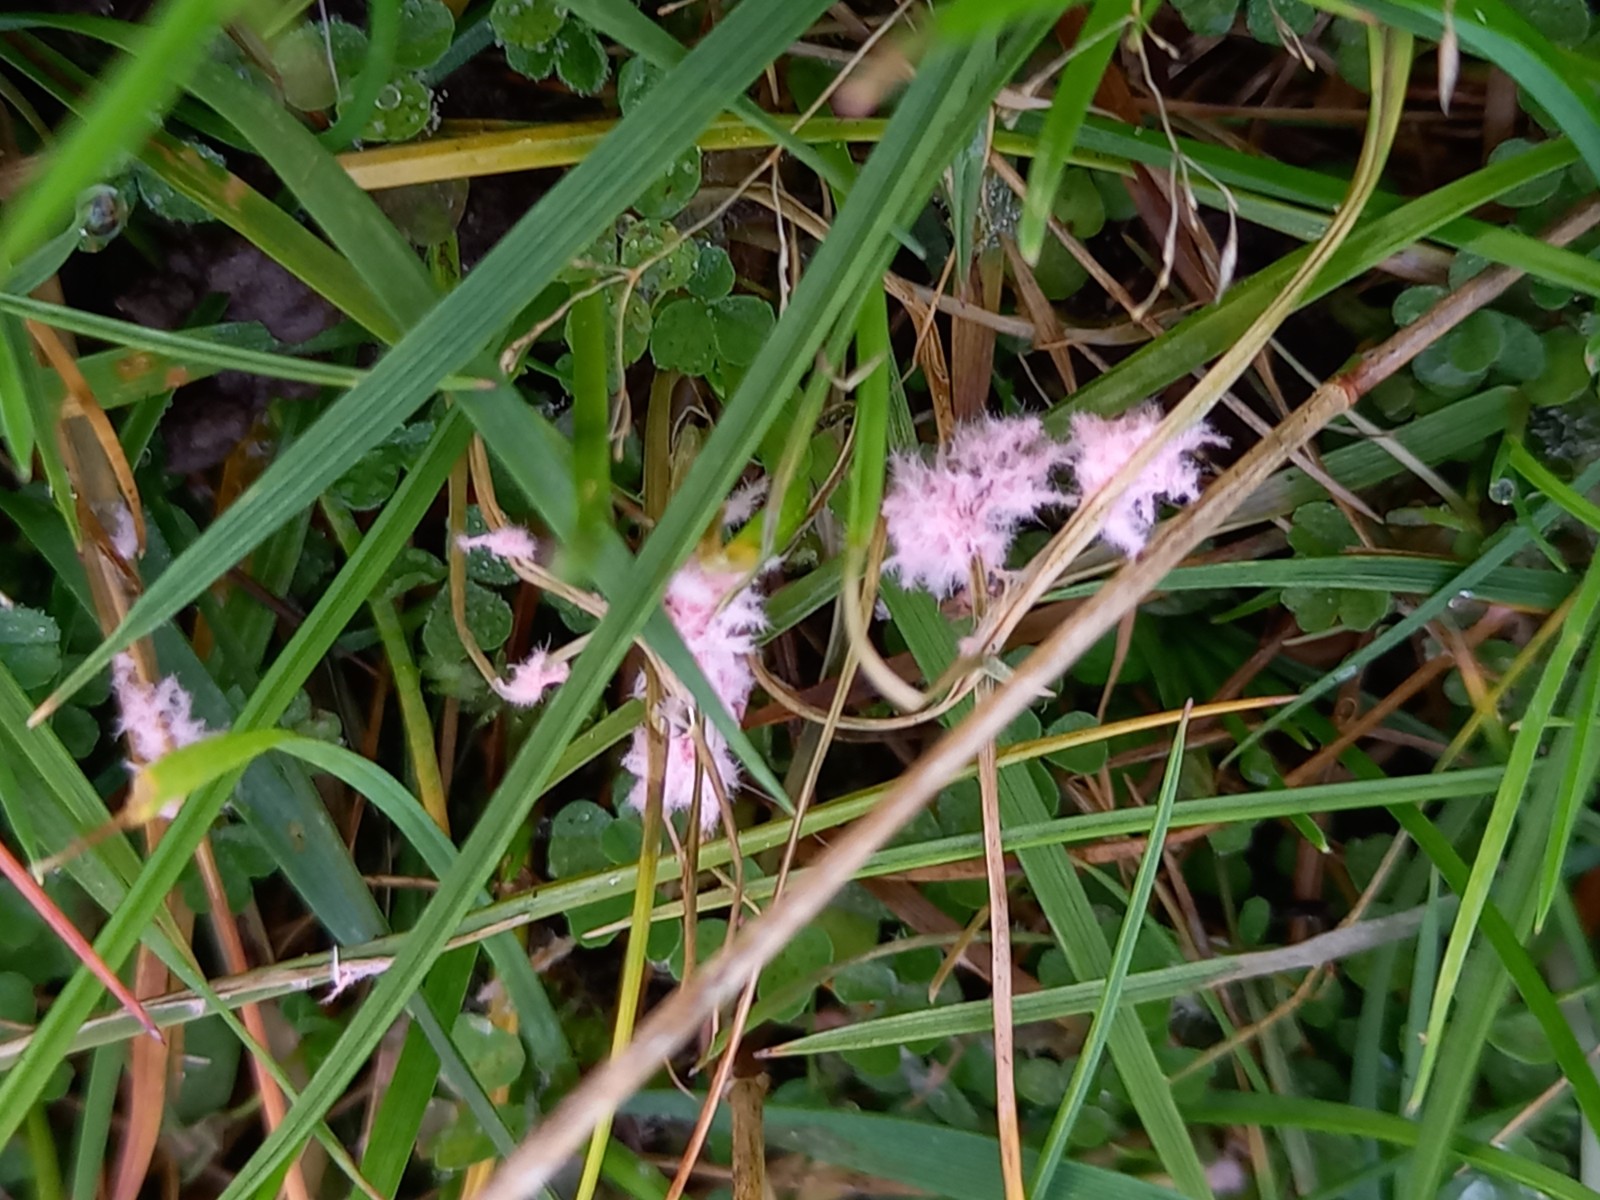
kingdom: Fungi
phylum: Basidiomycota
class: Agaricomycetes
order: Corticiales
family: Corticiaceae
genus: Laetisaria
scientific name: Laetisaria
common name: rødtråd
